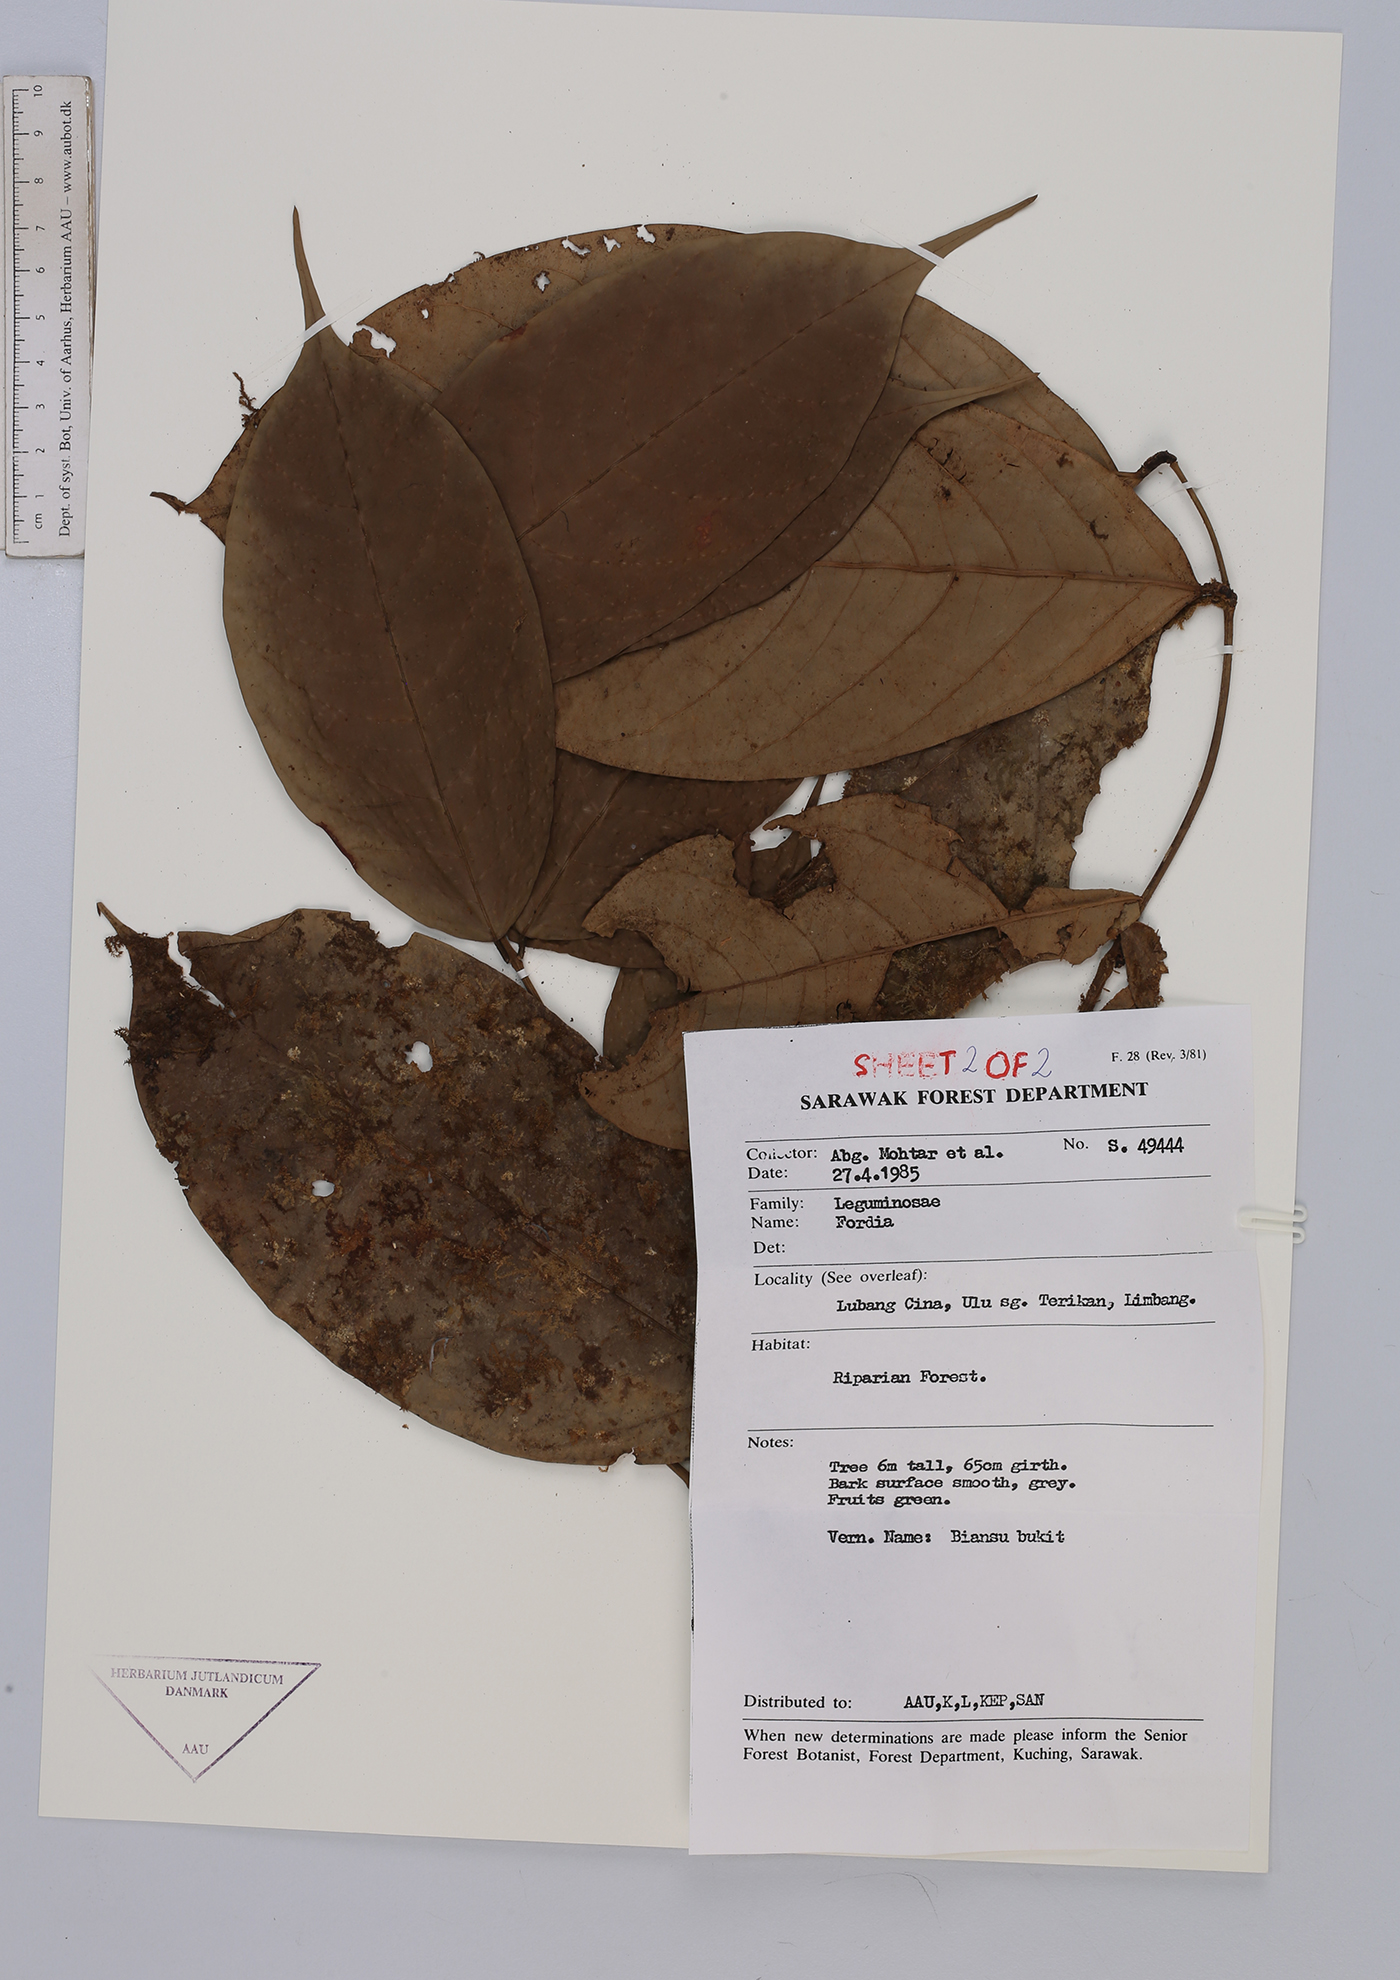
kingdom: Plantae
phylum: Tracheophyta
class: Magnoliopsida
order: Fabales
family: Fabaceae
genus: Fordia
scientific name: Fordia
